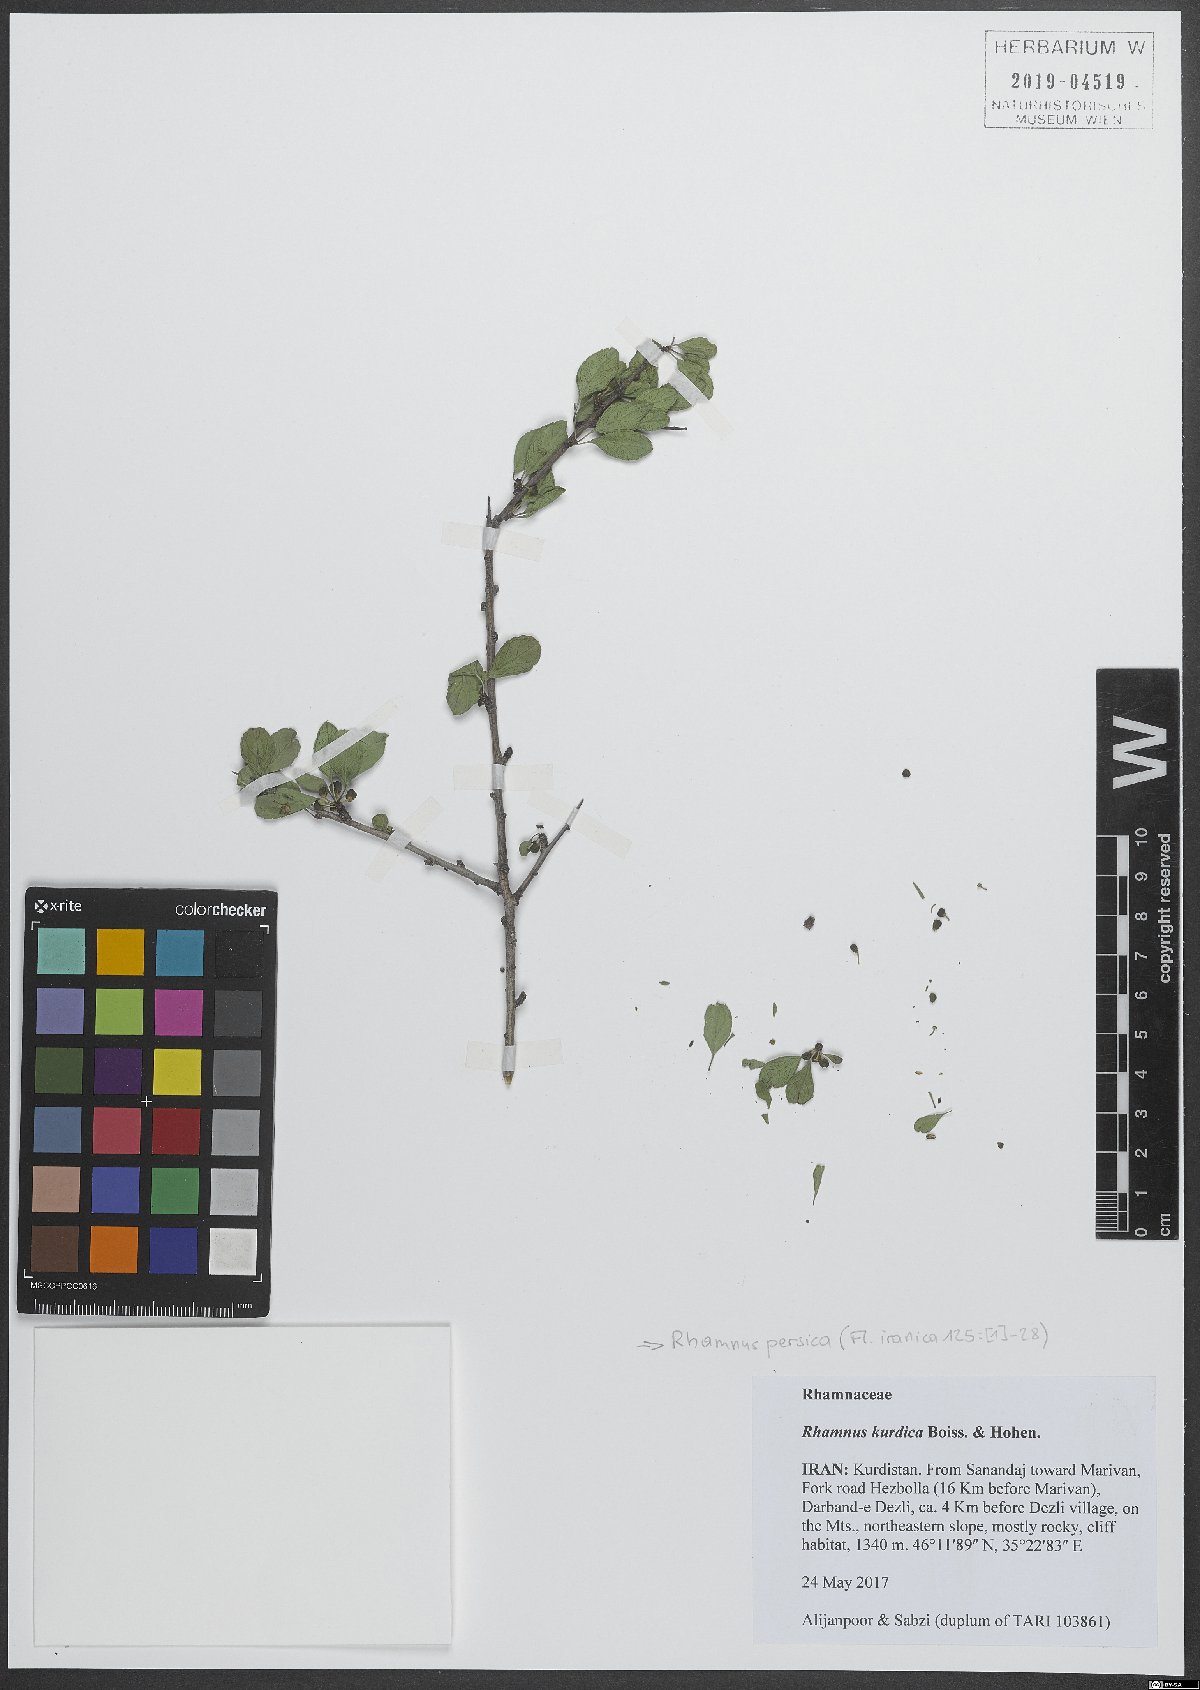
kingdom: Plantae
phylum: Tracheophyta
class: Magnoliopsida
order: Rosales
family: Rhamnaceae
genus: Rhamnus
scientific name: Rhamnus persica
